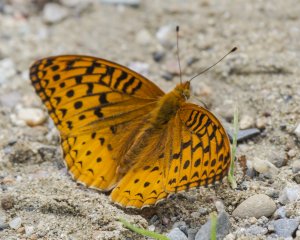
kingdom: Animalia
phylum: Arthropoda
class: Insecta
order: Lepidoptera
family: Nymphalidae
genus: Speyeria
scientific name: Speyeria cybele
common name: Great Spangled Fritillary
